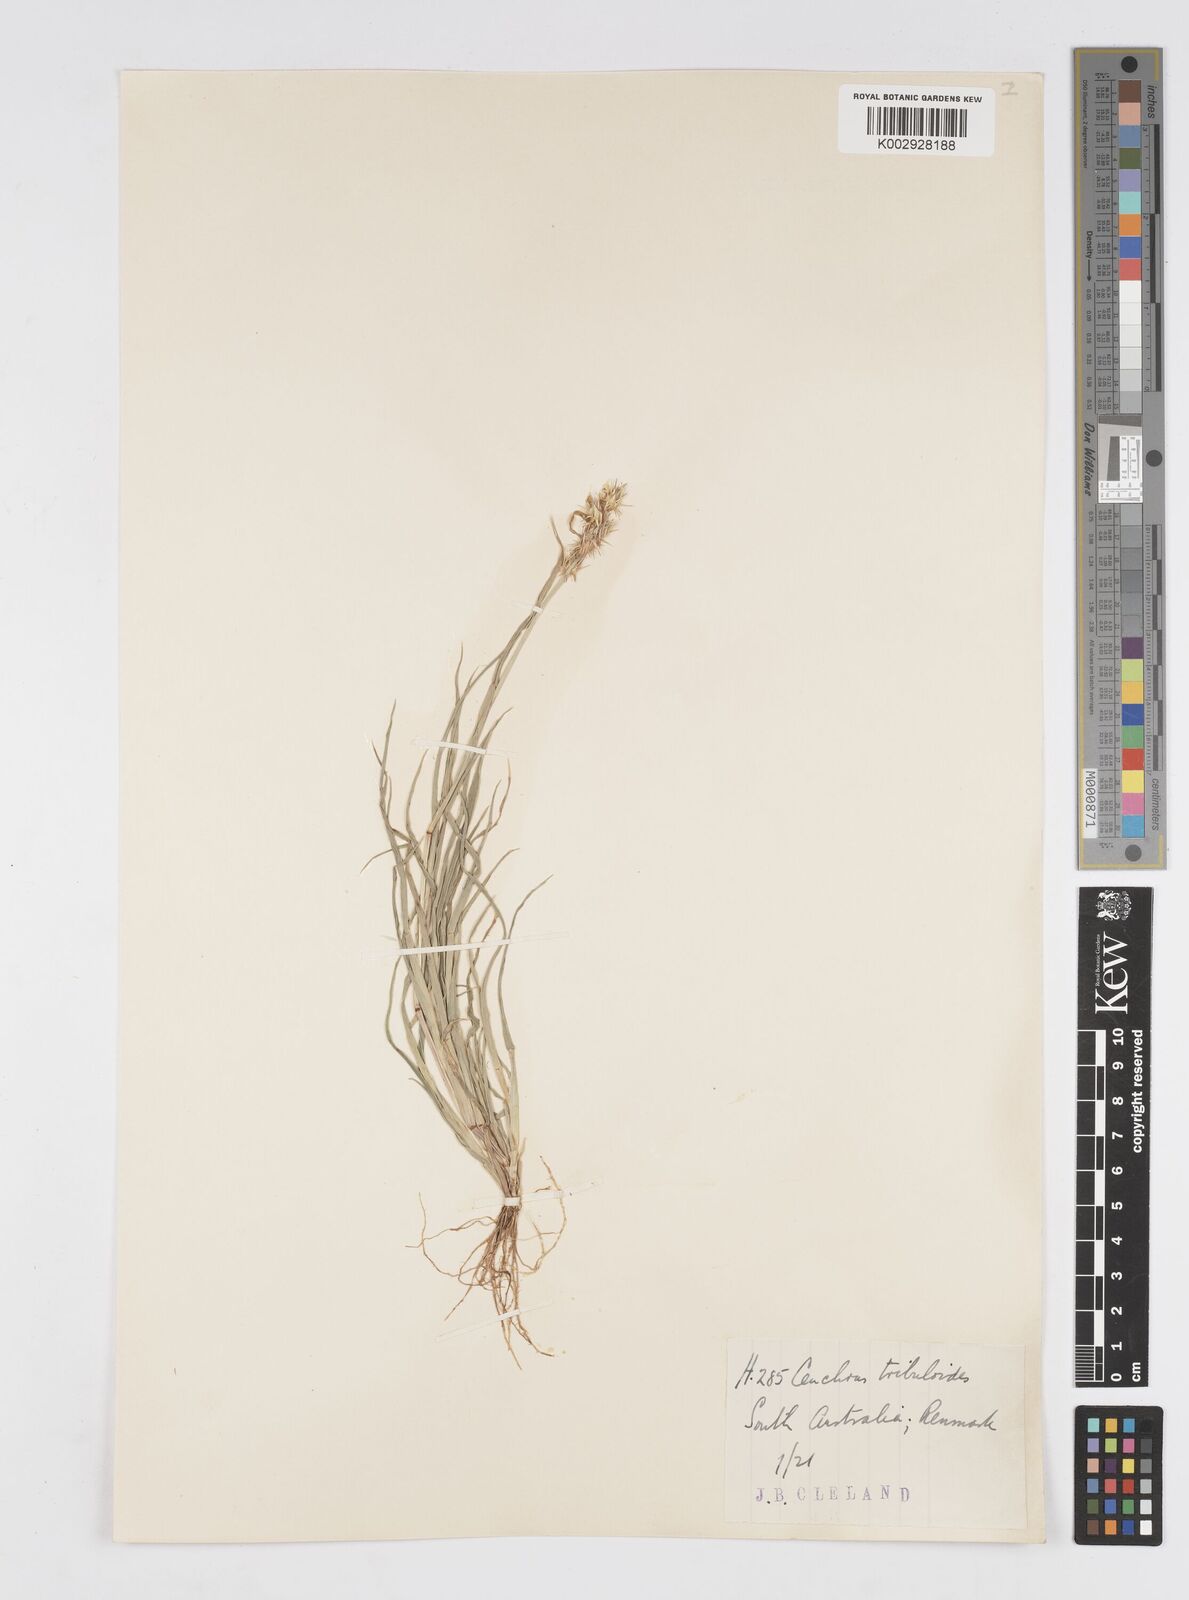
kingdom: Plantae
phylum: Tracheophyta
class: Liliopsida
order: Poales
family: Poaceae
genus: Cenchrus
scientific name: Cenchrus longispinus
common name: Mat sandbur
